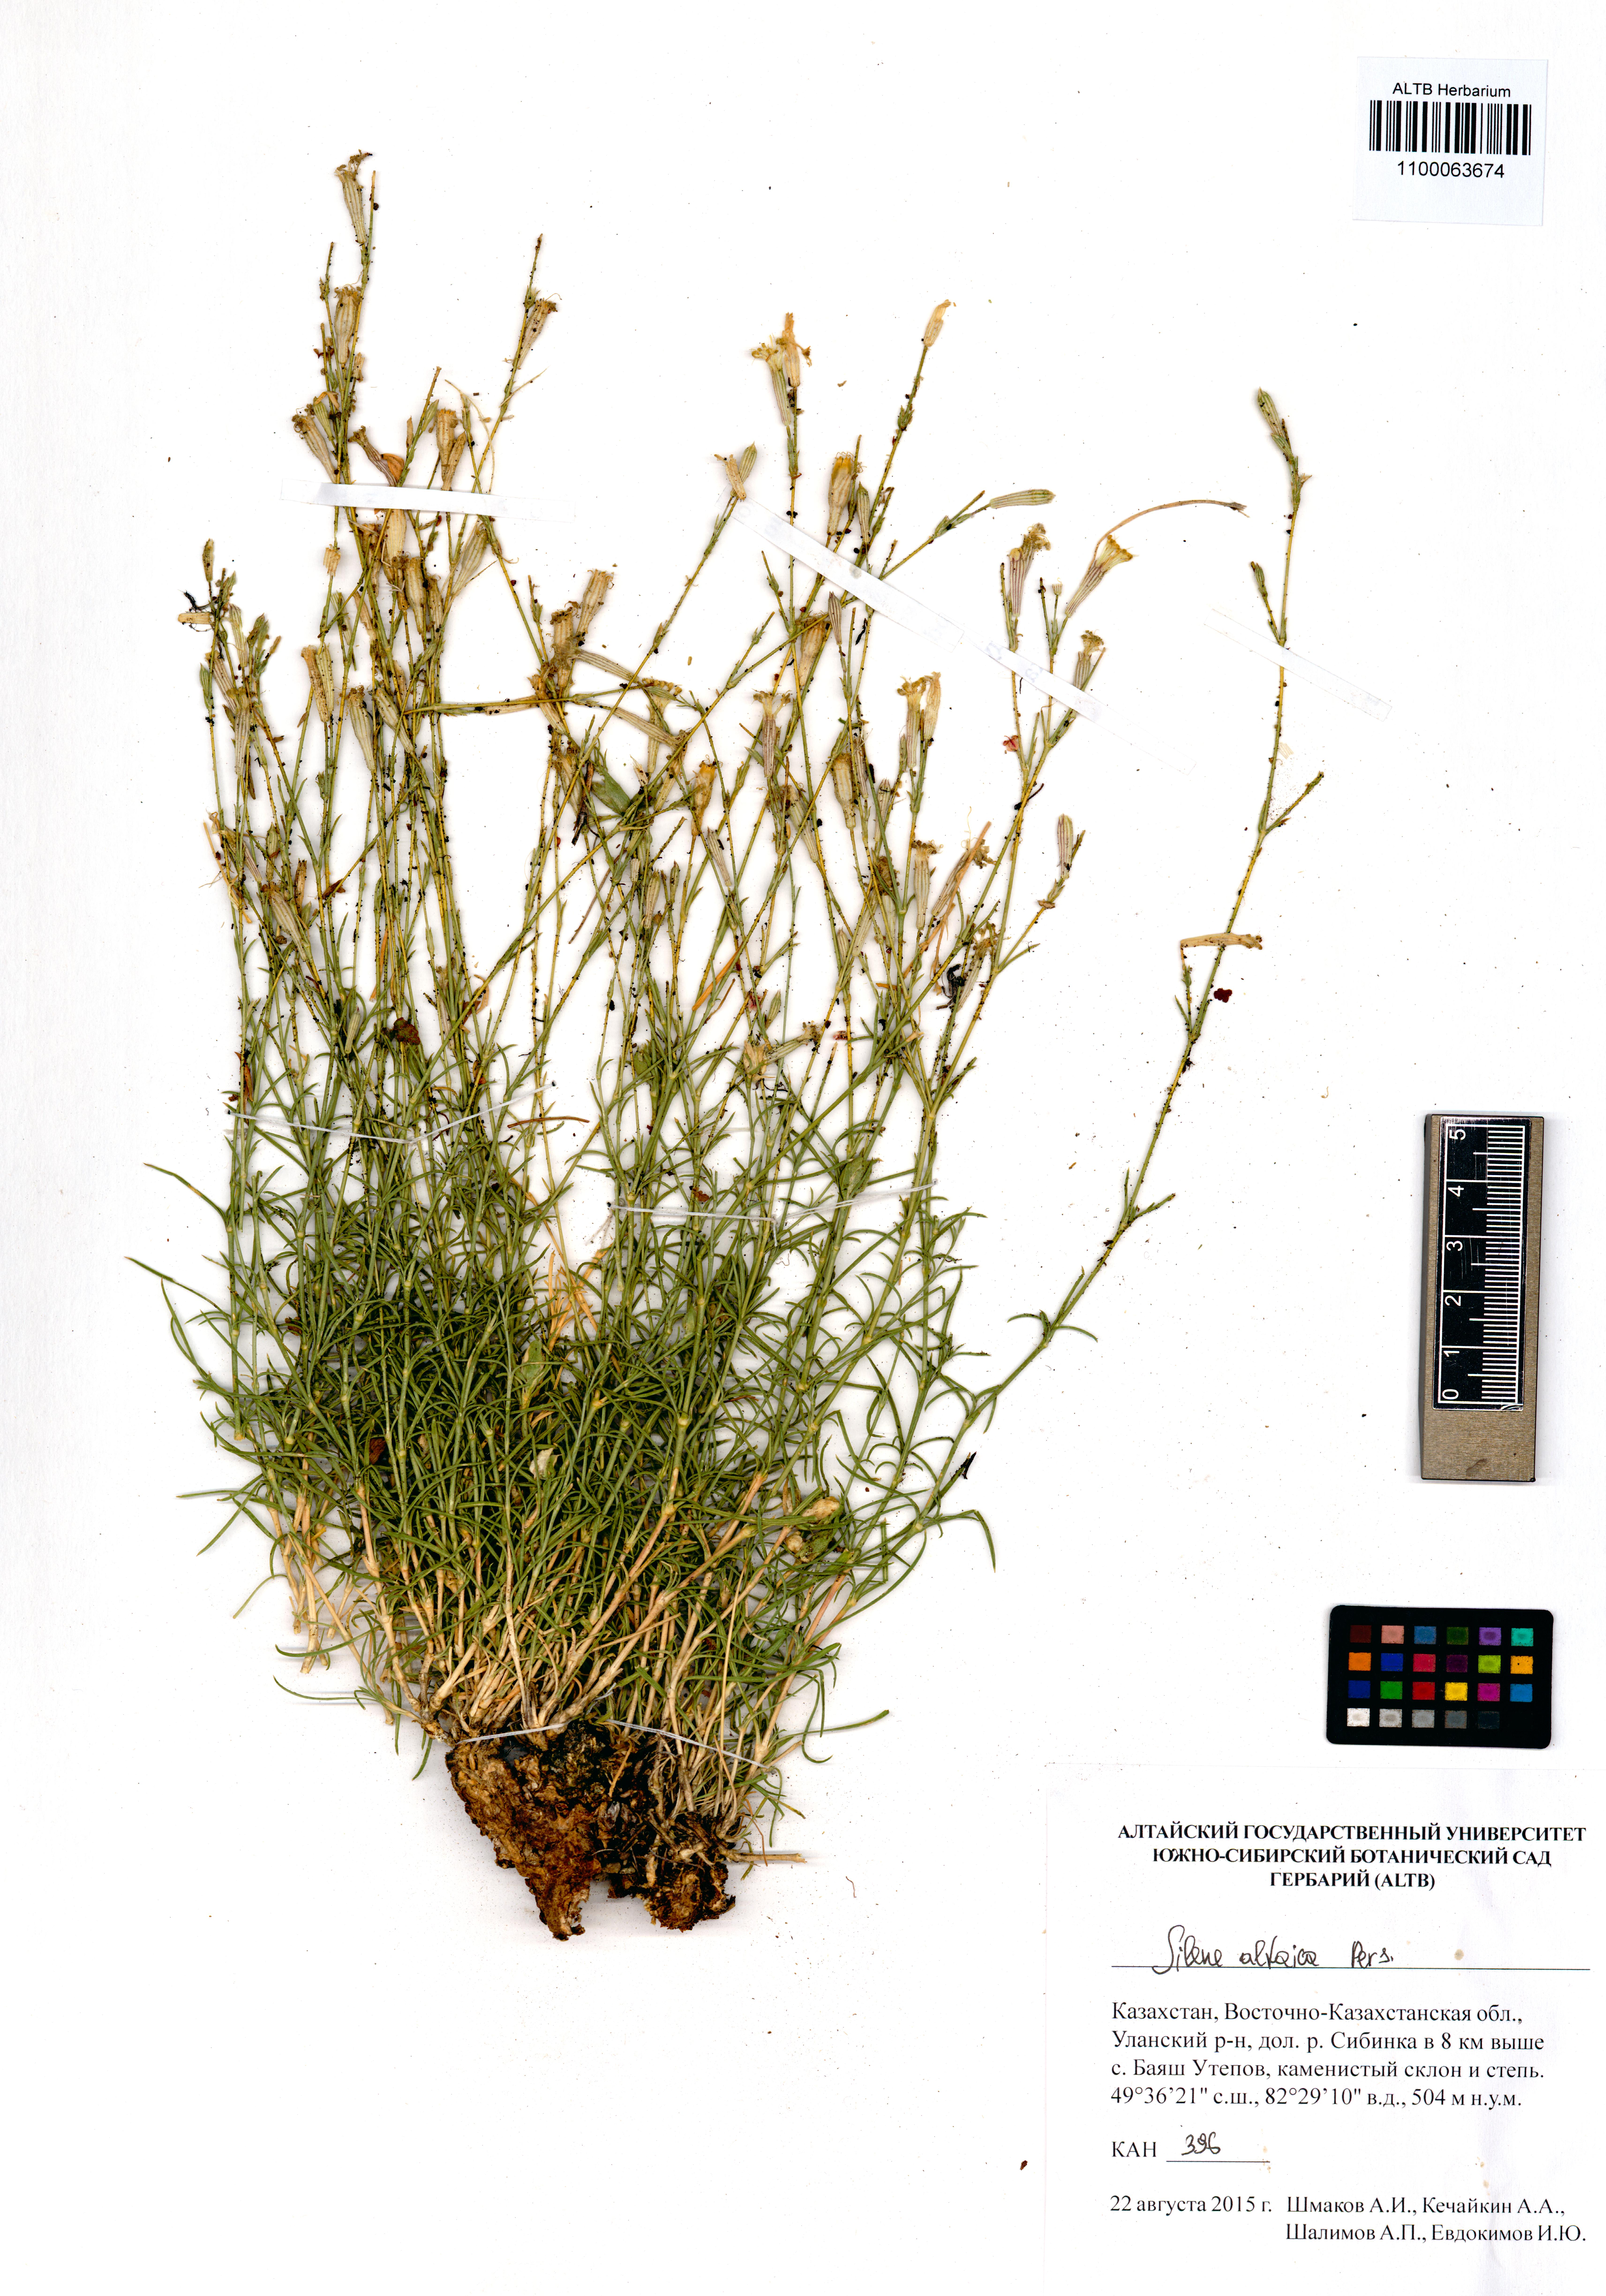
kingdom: Plantae
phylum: Tracheophyta
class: Magnoliopsida
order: Caryophyllales
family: Caryophyllaceae
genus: Silene
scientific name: Silene altaica
